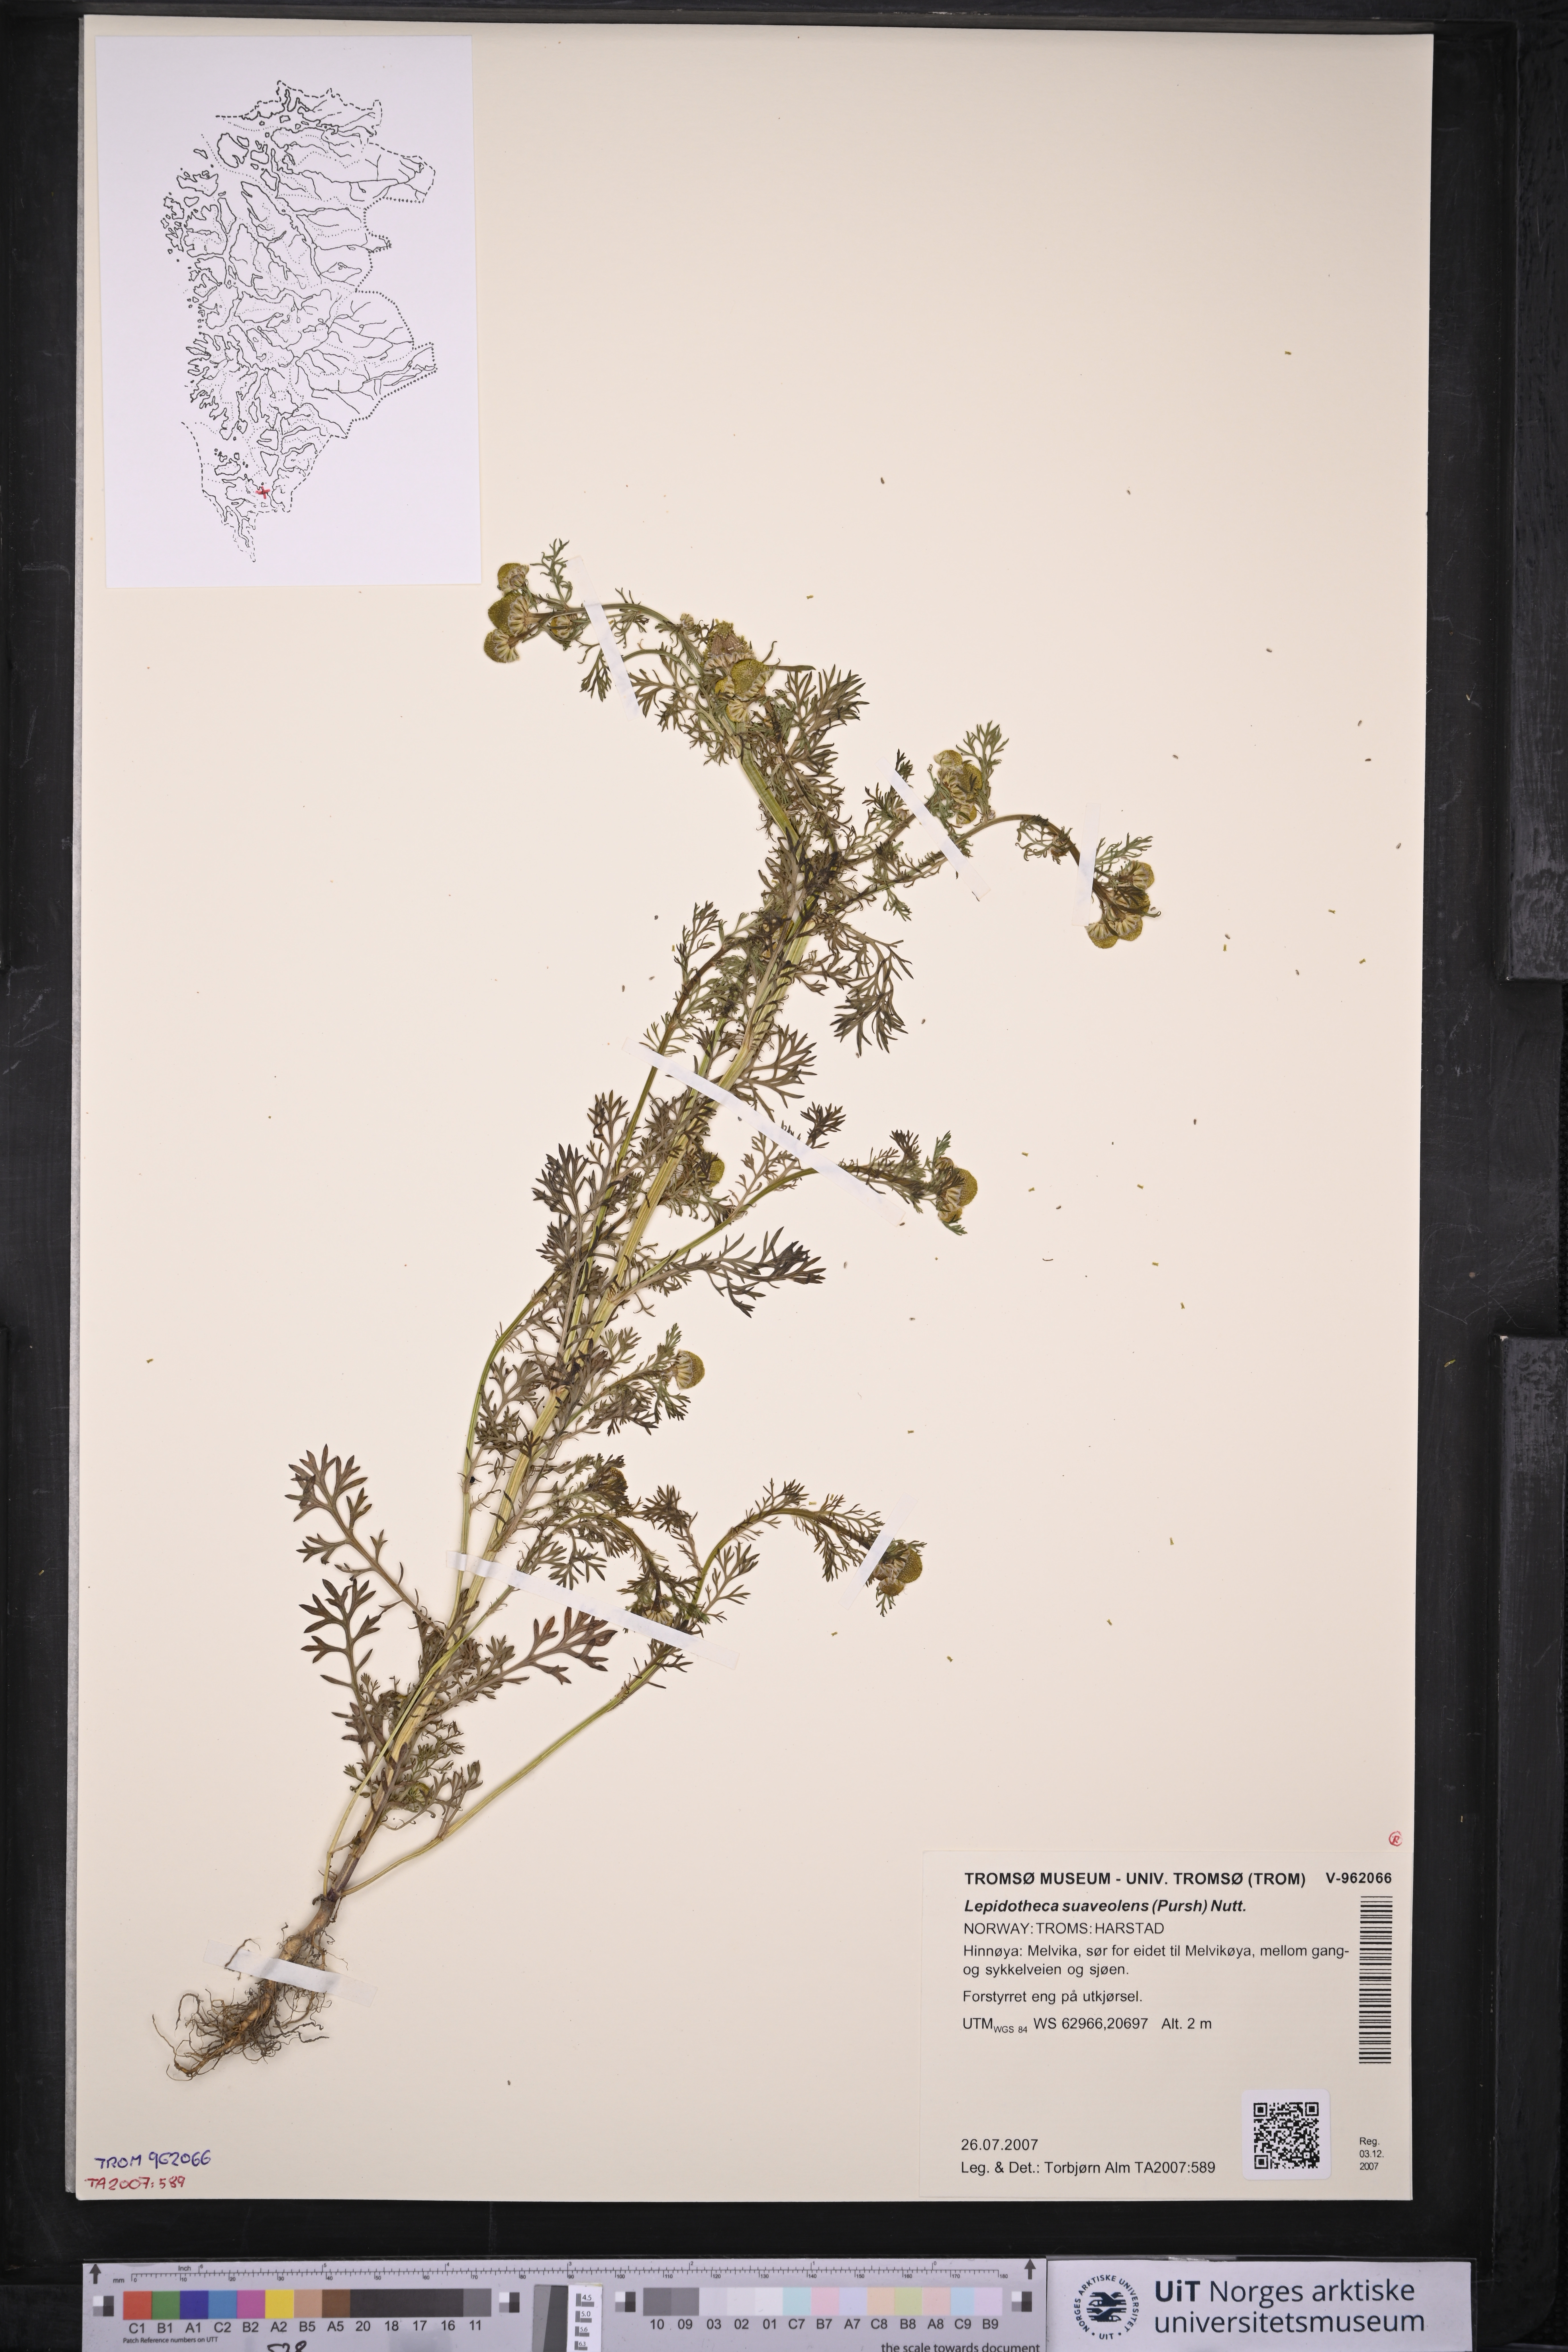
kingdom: Plantae
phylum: Tracheophyta
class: Magnoliopsida
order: Asterales
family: Asteraceae
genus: Matricaria
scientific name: Matricaria discoidea
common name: Disc mayweed
